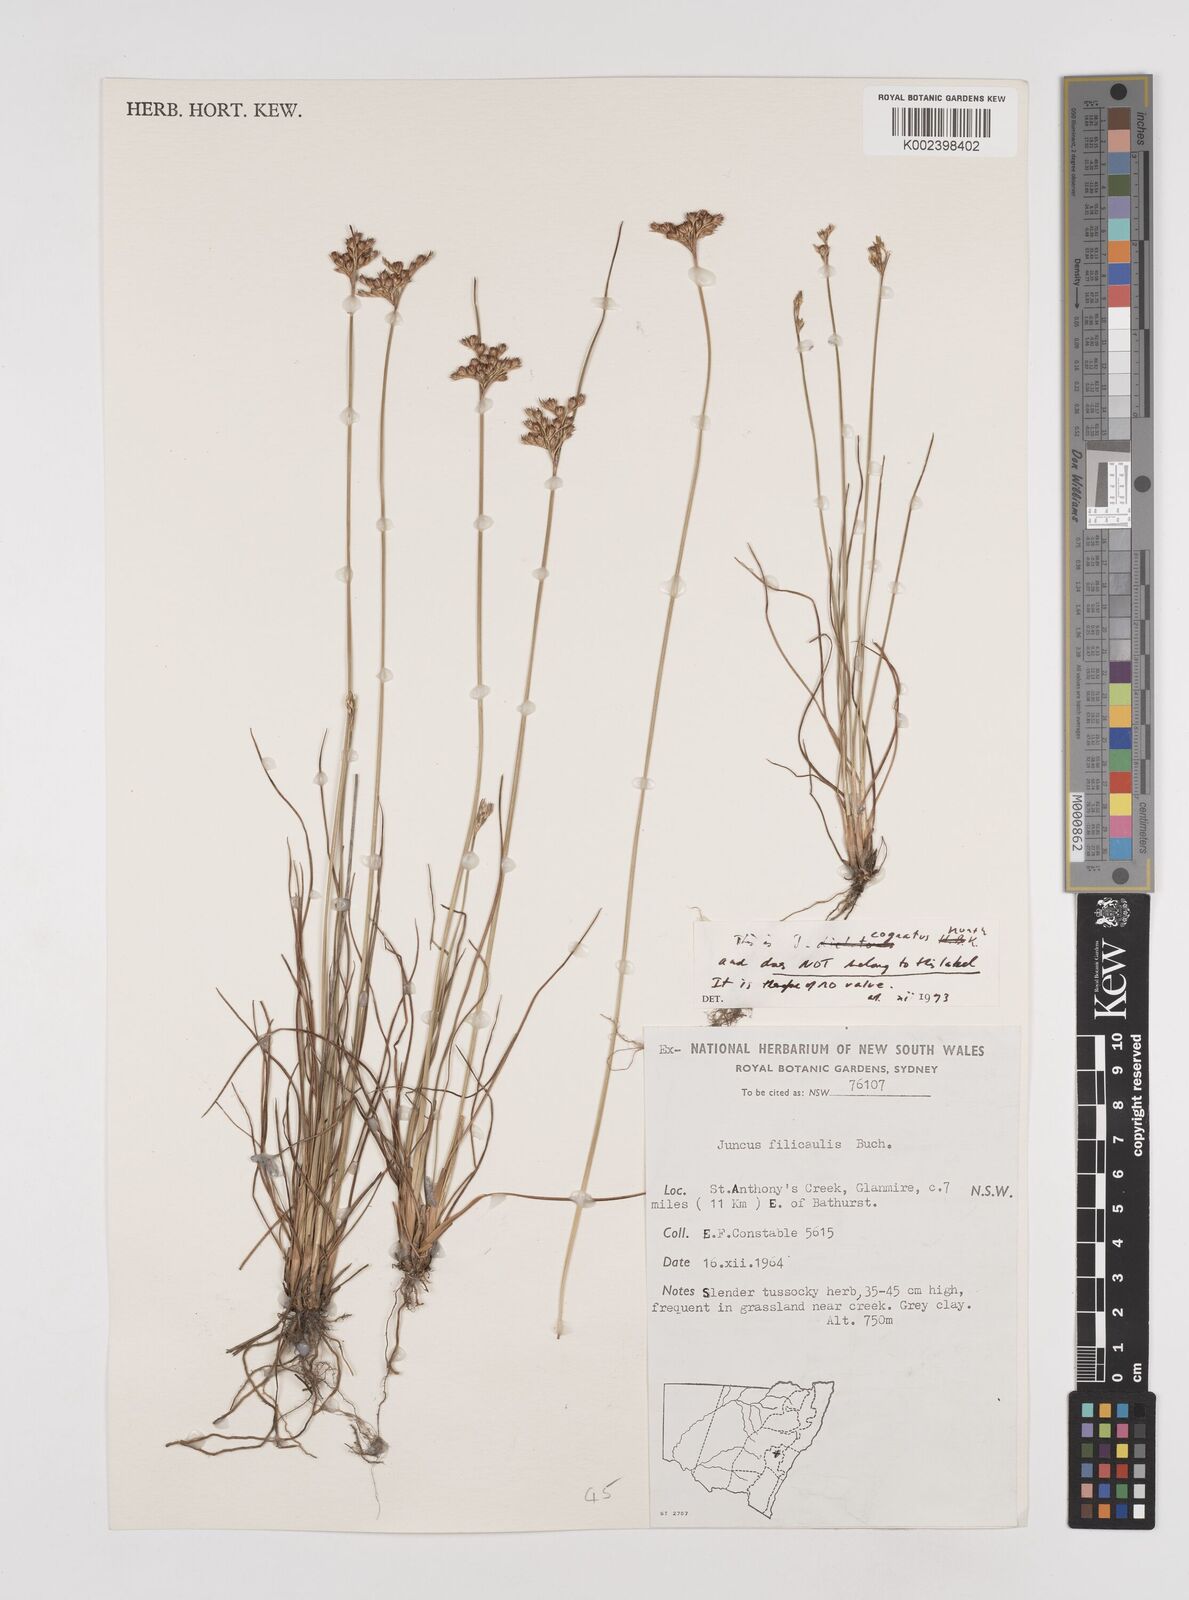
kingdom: Plantae
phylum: Tracheophyta
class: Liliopsida
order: Poales
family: Juncaceae
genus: Juncus
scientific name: Juncus dichotomus
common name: Forked rush
